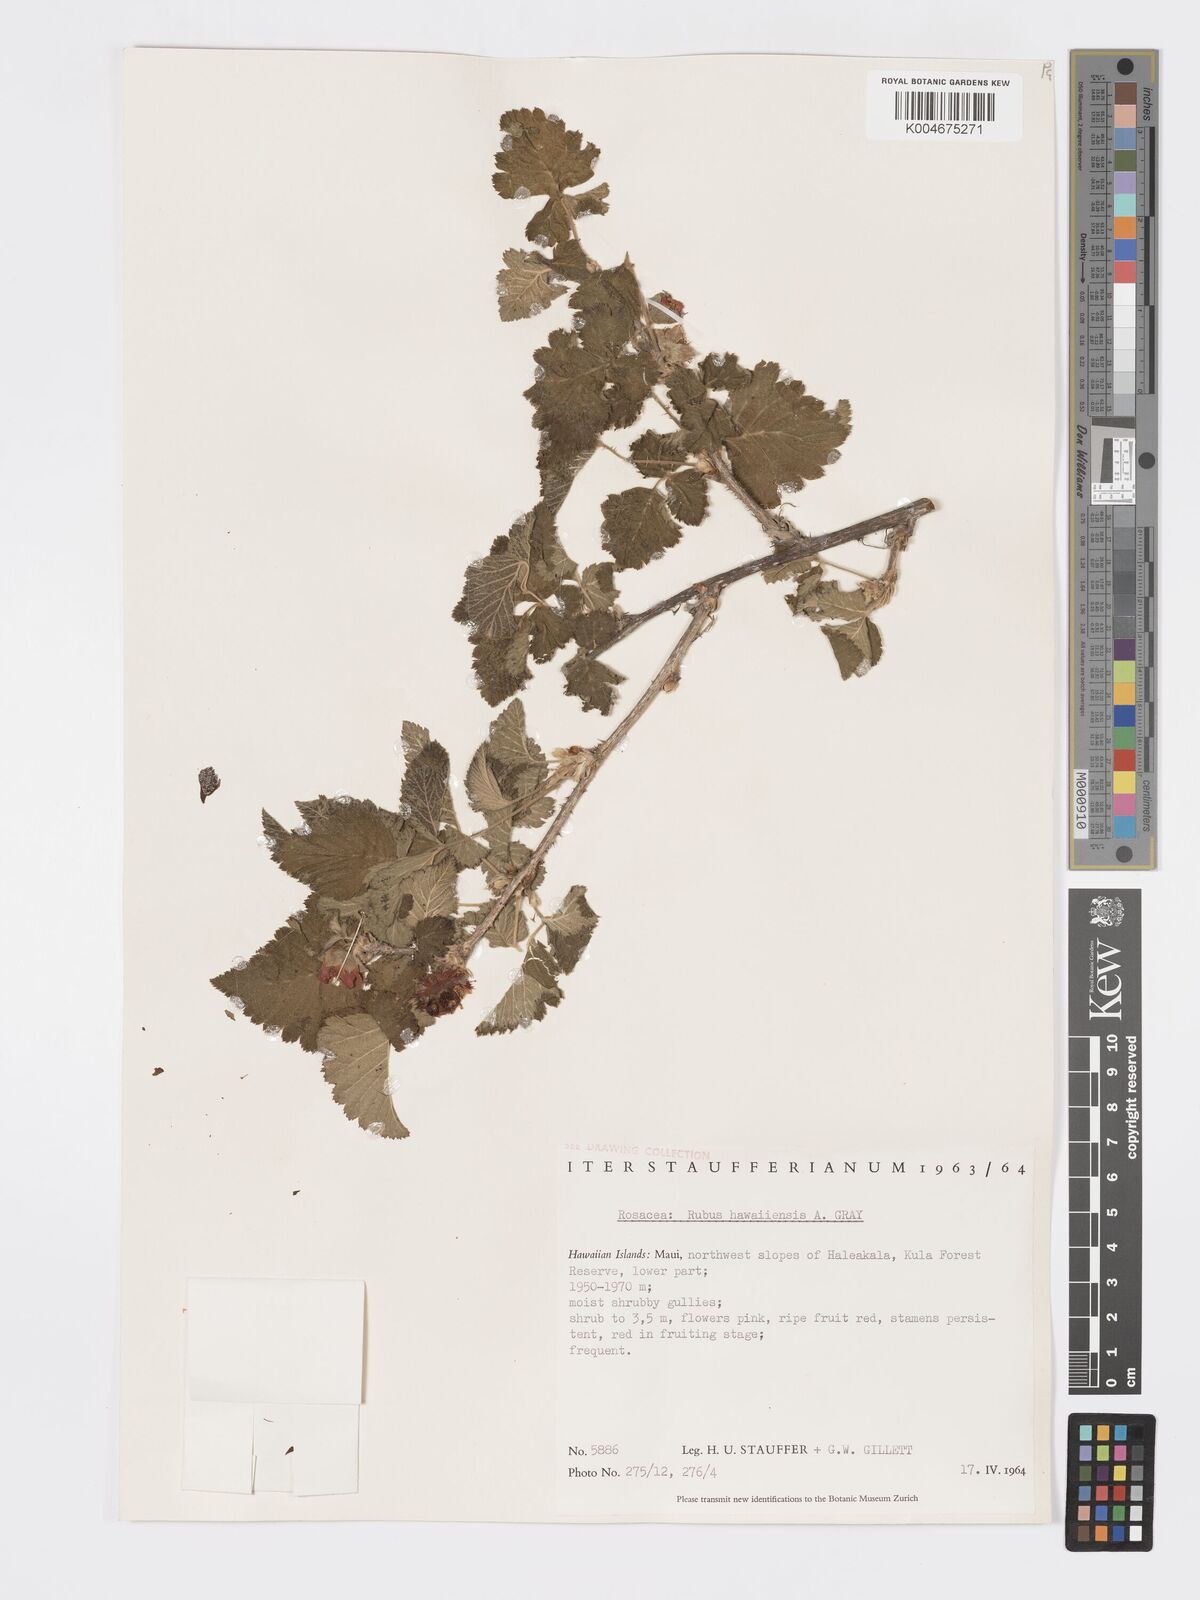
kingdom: Plantae
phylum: Tracheophyta
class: Magnoliopsida
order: Rosales
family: Rosaceae
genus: Rubus
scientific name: Rubus hawaiensis
